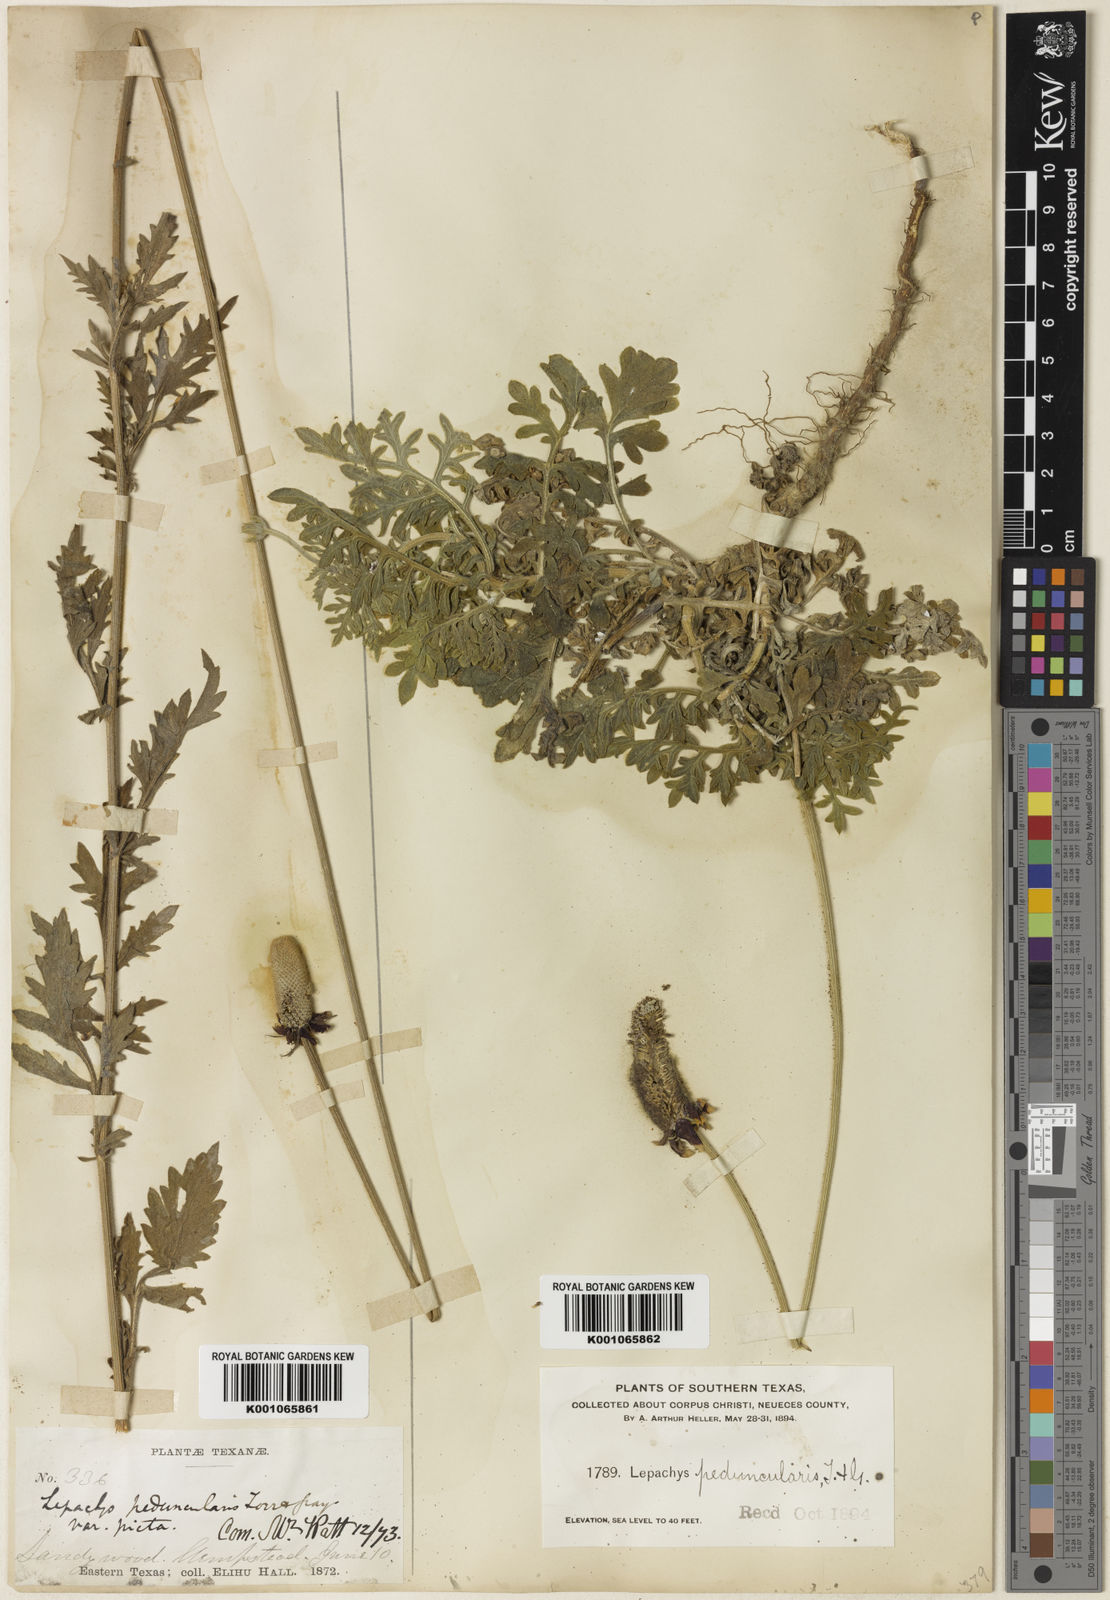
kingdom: Plantae
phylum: Tracheophyta
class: Magnoliopsida
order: Asterales
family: Asteraceae
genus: Ratibida
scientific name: Ratibida peduncularis
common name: Naked prairie-coneflower
